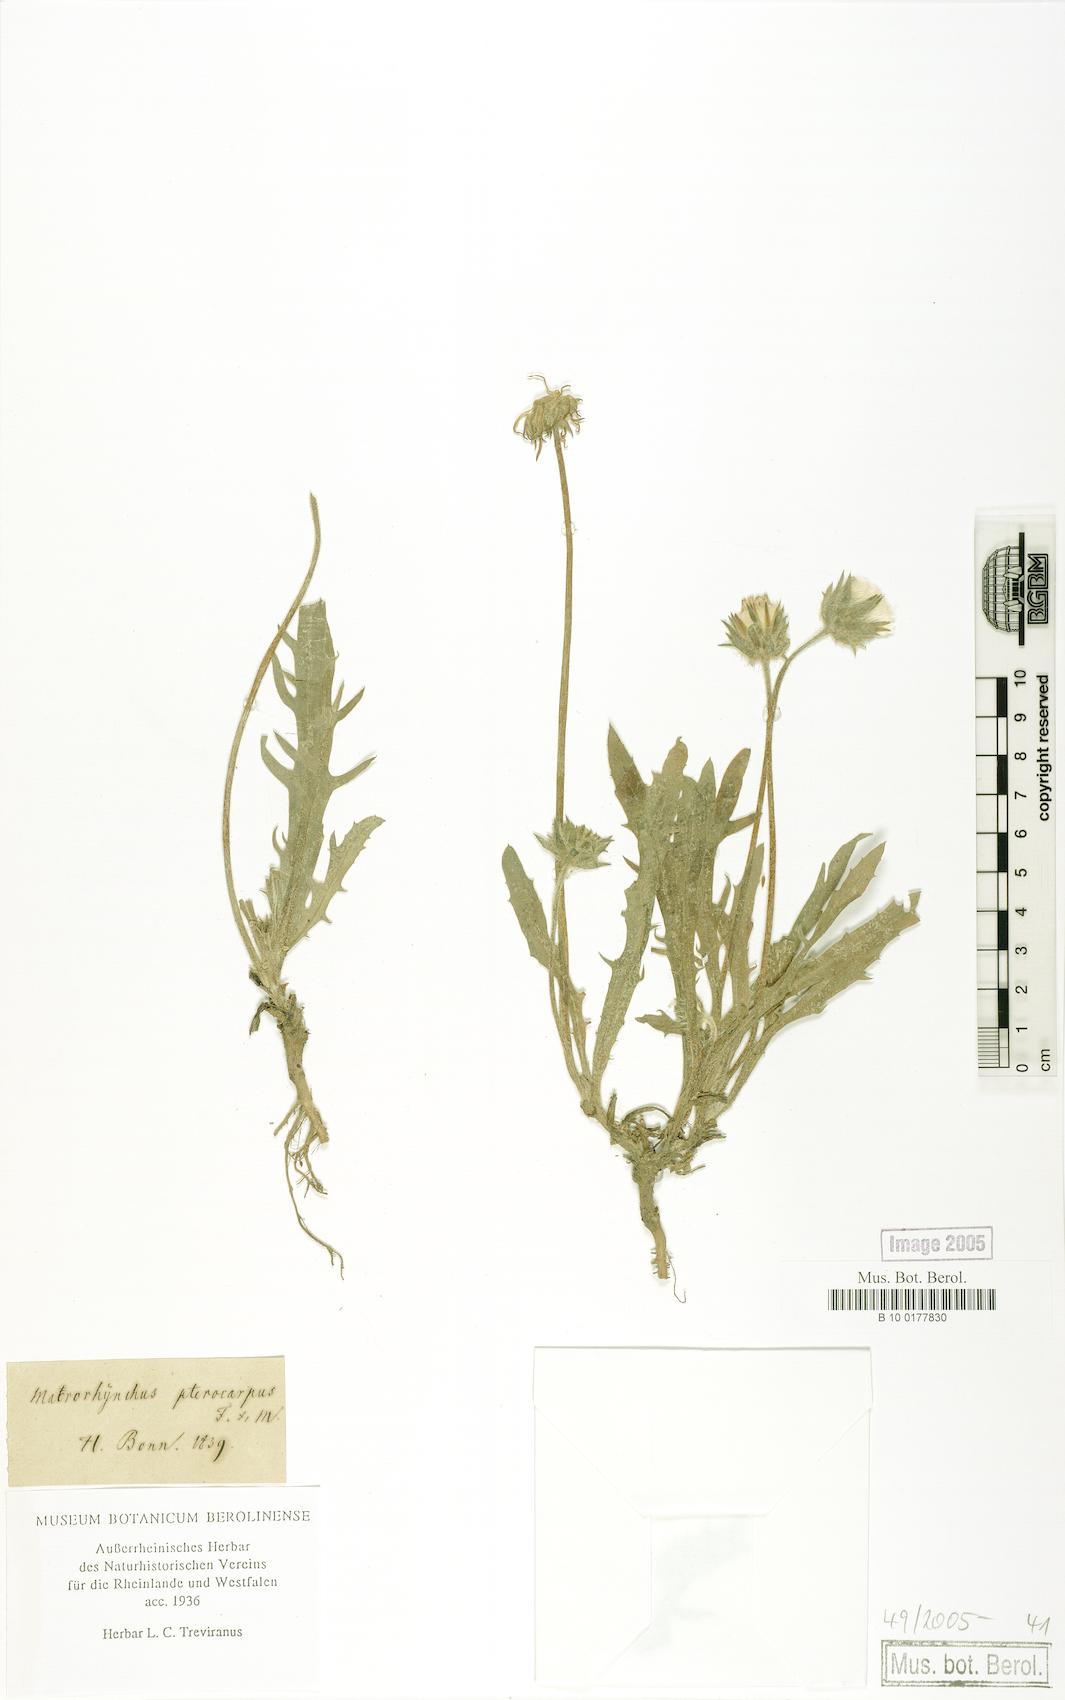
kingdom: Plantae
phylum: Tracheophyta
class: Magnoliopsida
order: Asterales
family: Asteraceae
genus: Agoseris
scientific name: Agoseris coronopifolia
